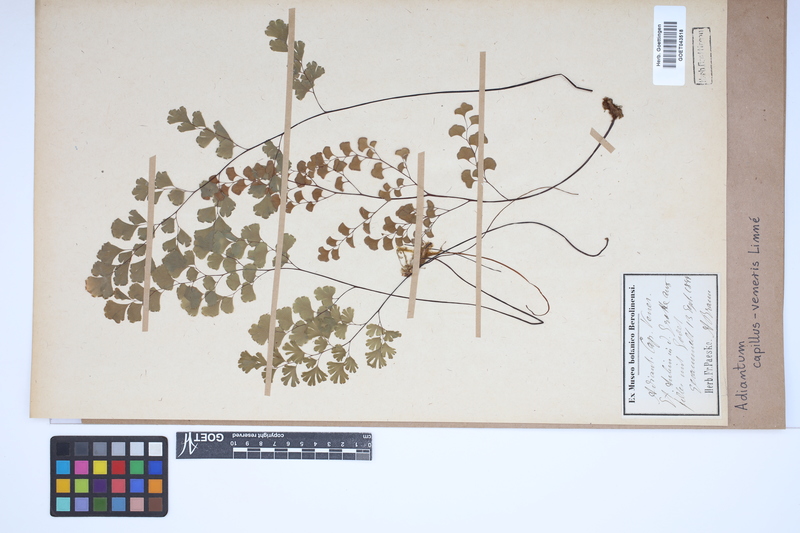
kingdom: Plantae
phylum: Tracheophyta
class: Polypodiopsida
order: Polypodiales
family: Pteridaceae
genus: Adiantum
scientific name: Adiantum capillus-veneris
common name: Maidenhair fern
